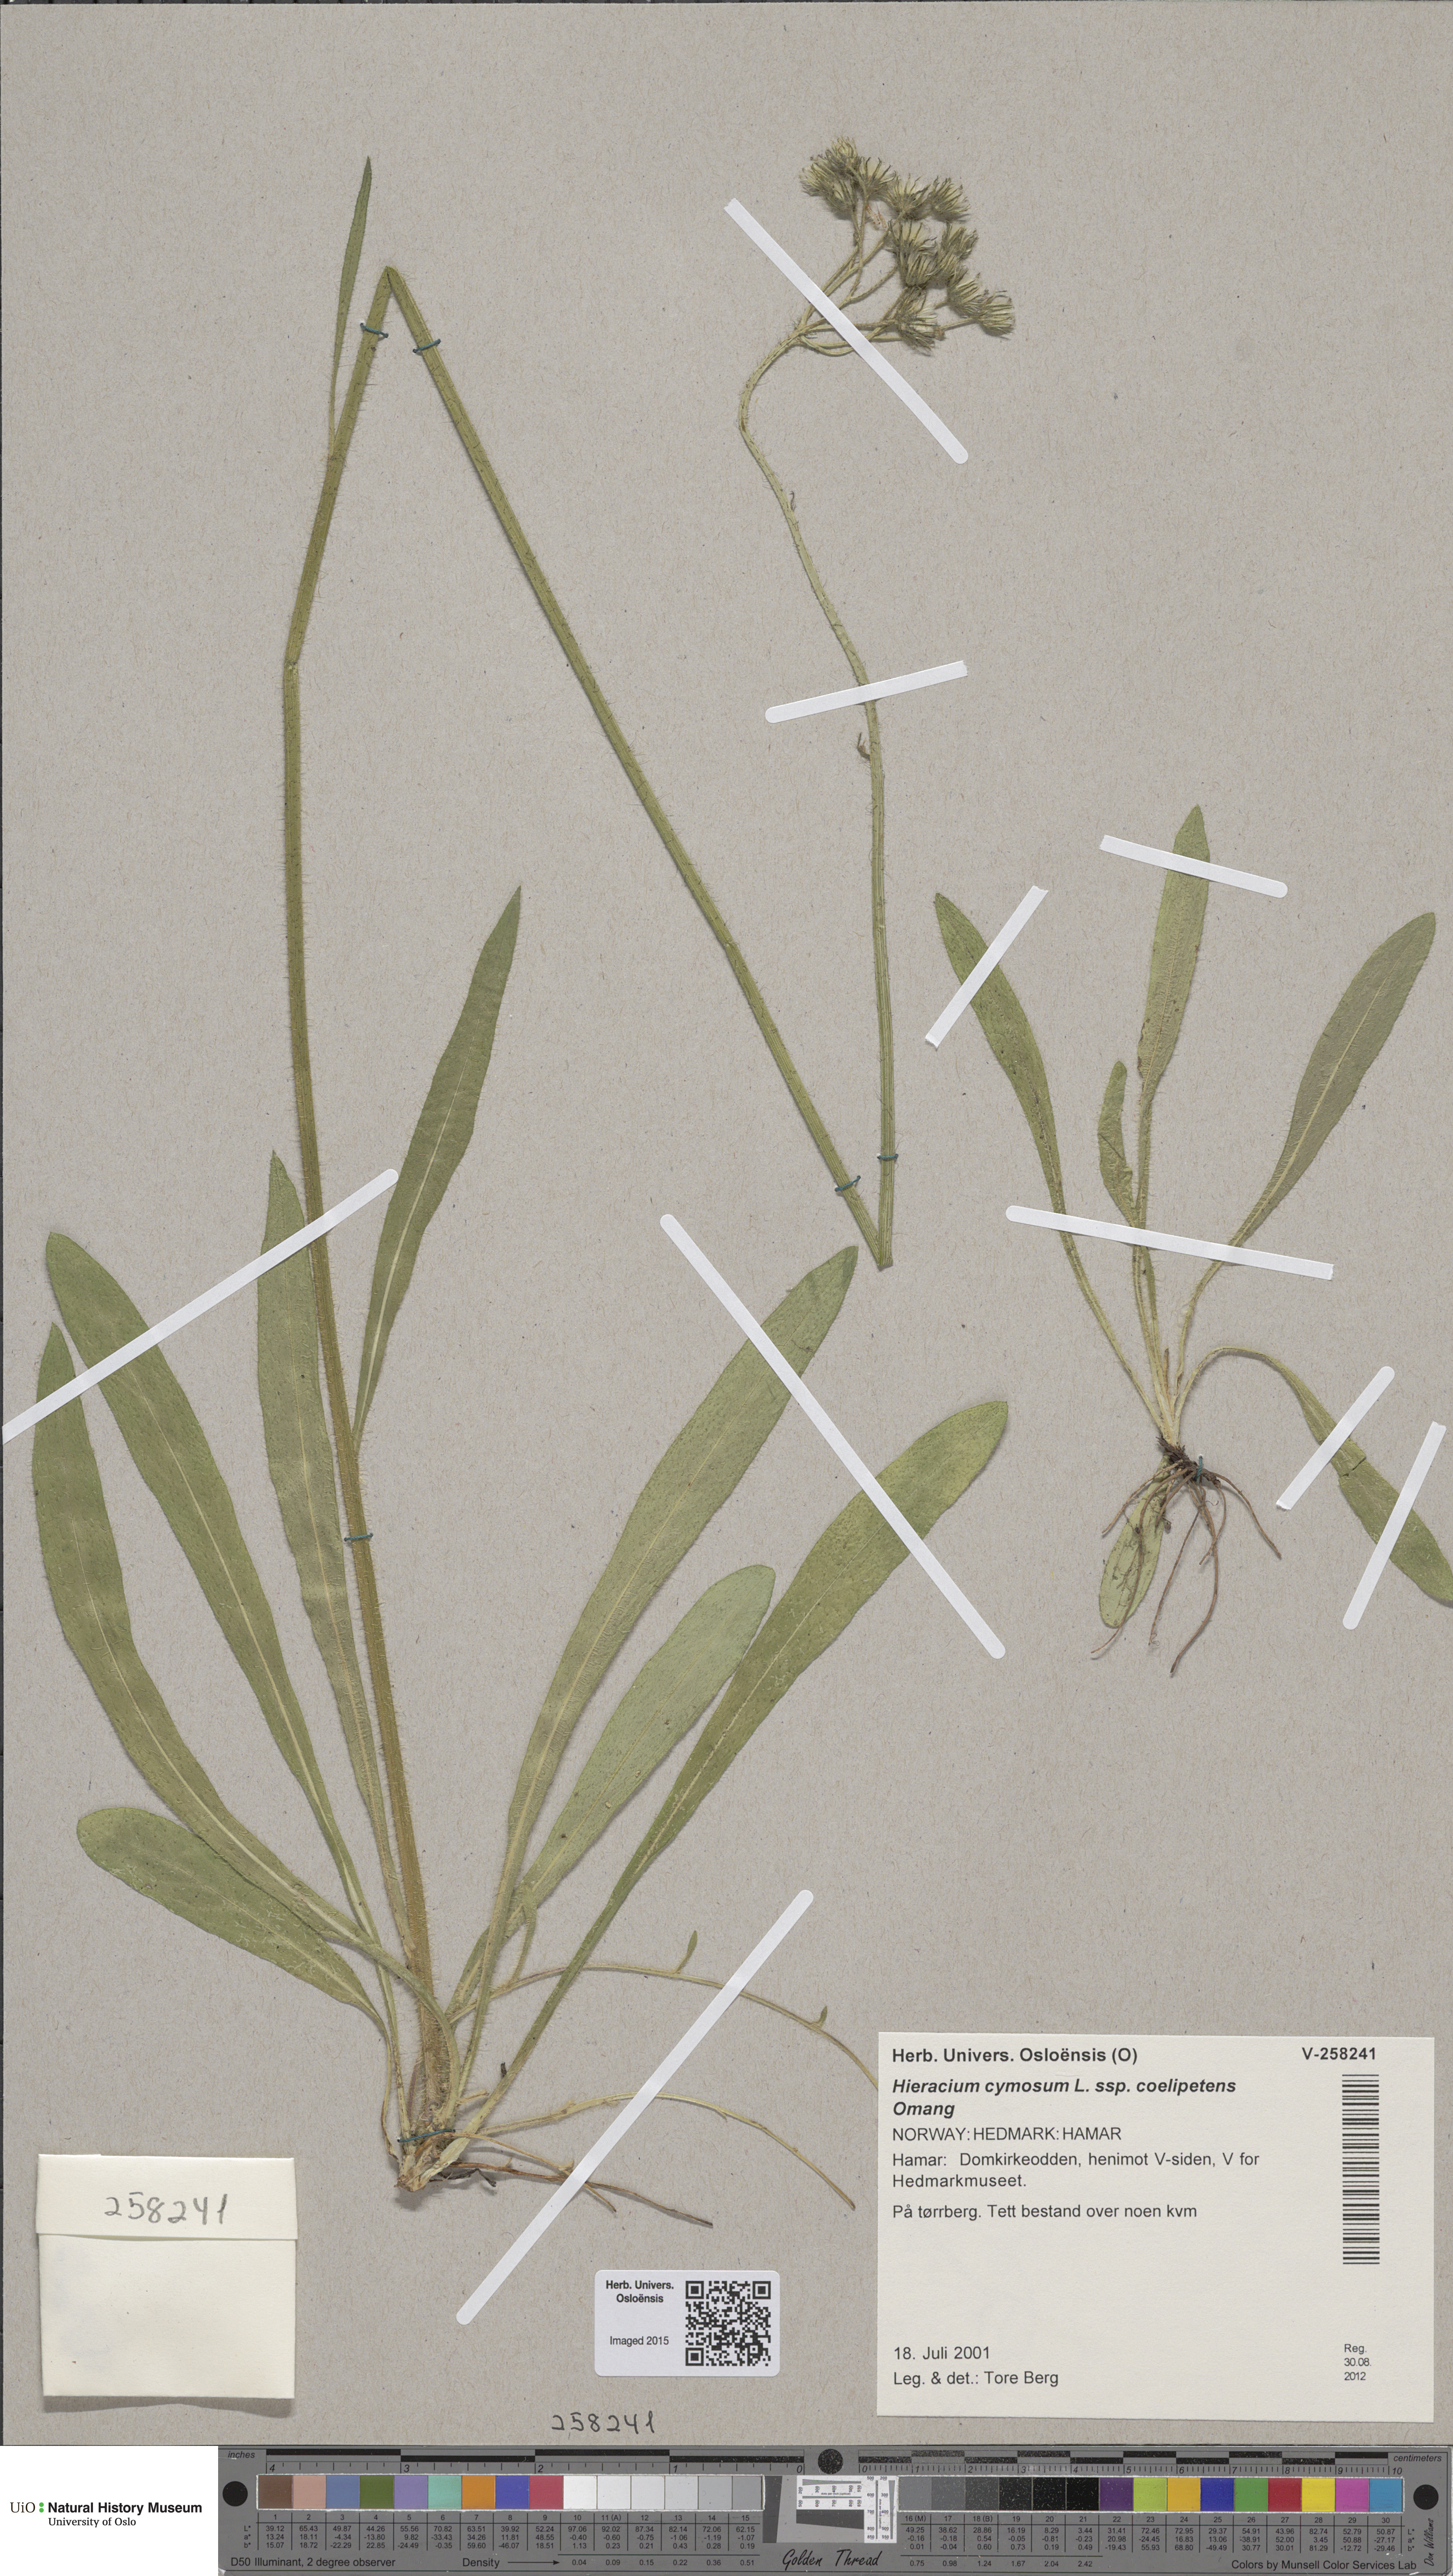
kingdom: Plantae
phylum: Tracheophyta
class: Magnoliopsida
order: Asterales
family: Asteraceae
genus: Pilosella
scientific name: Pilosella cymosa
